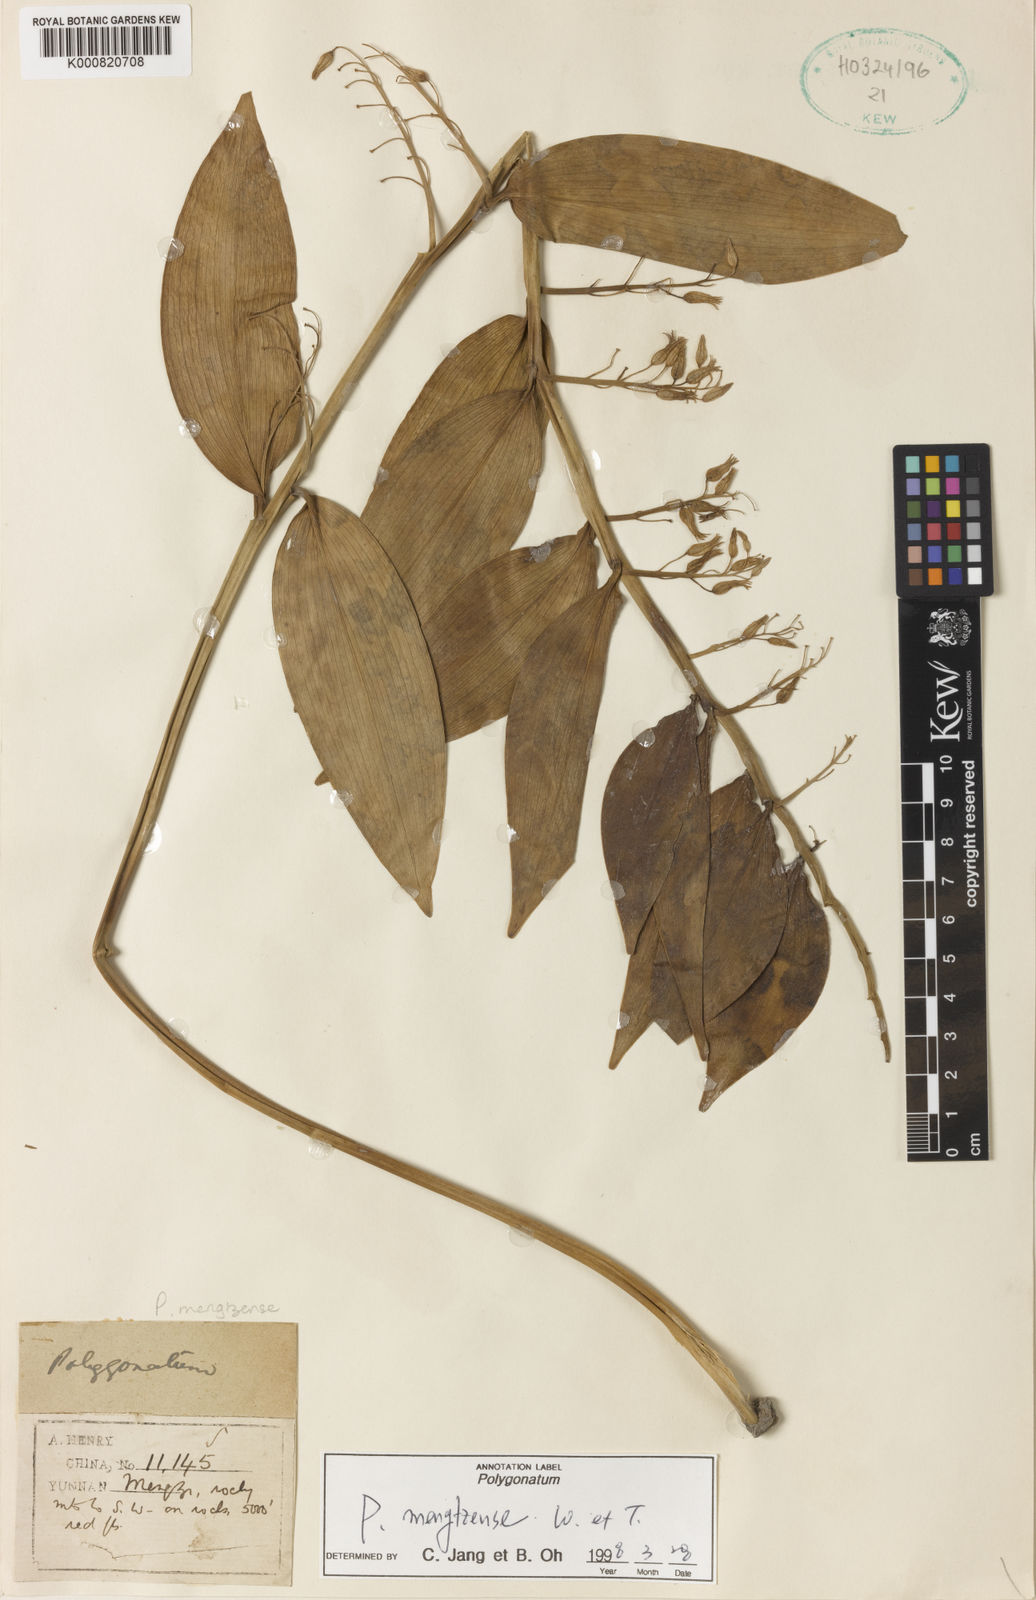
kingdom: Plantae
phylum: Tracheophyta
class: Liliopsida
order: Asparagales
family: Asparagaceae
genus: Polygonatum
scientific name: Polygonatum mengtzense
